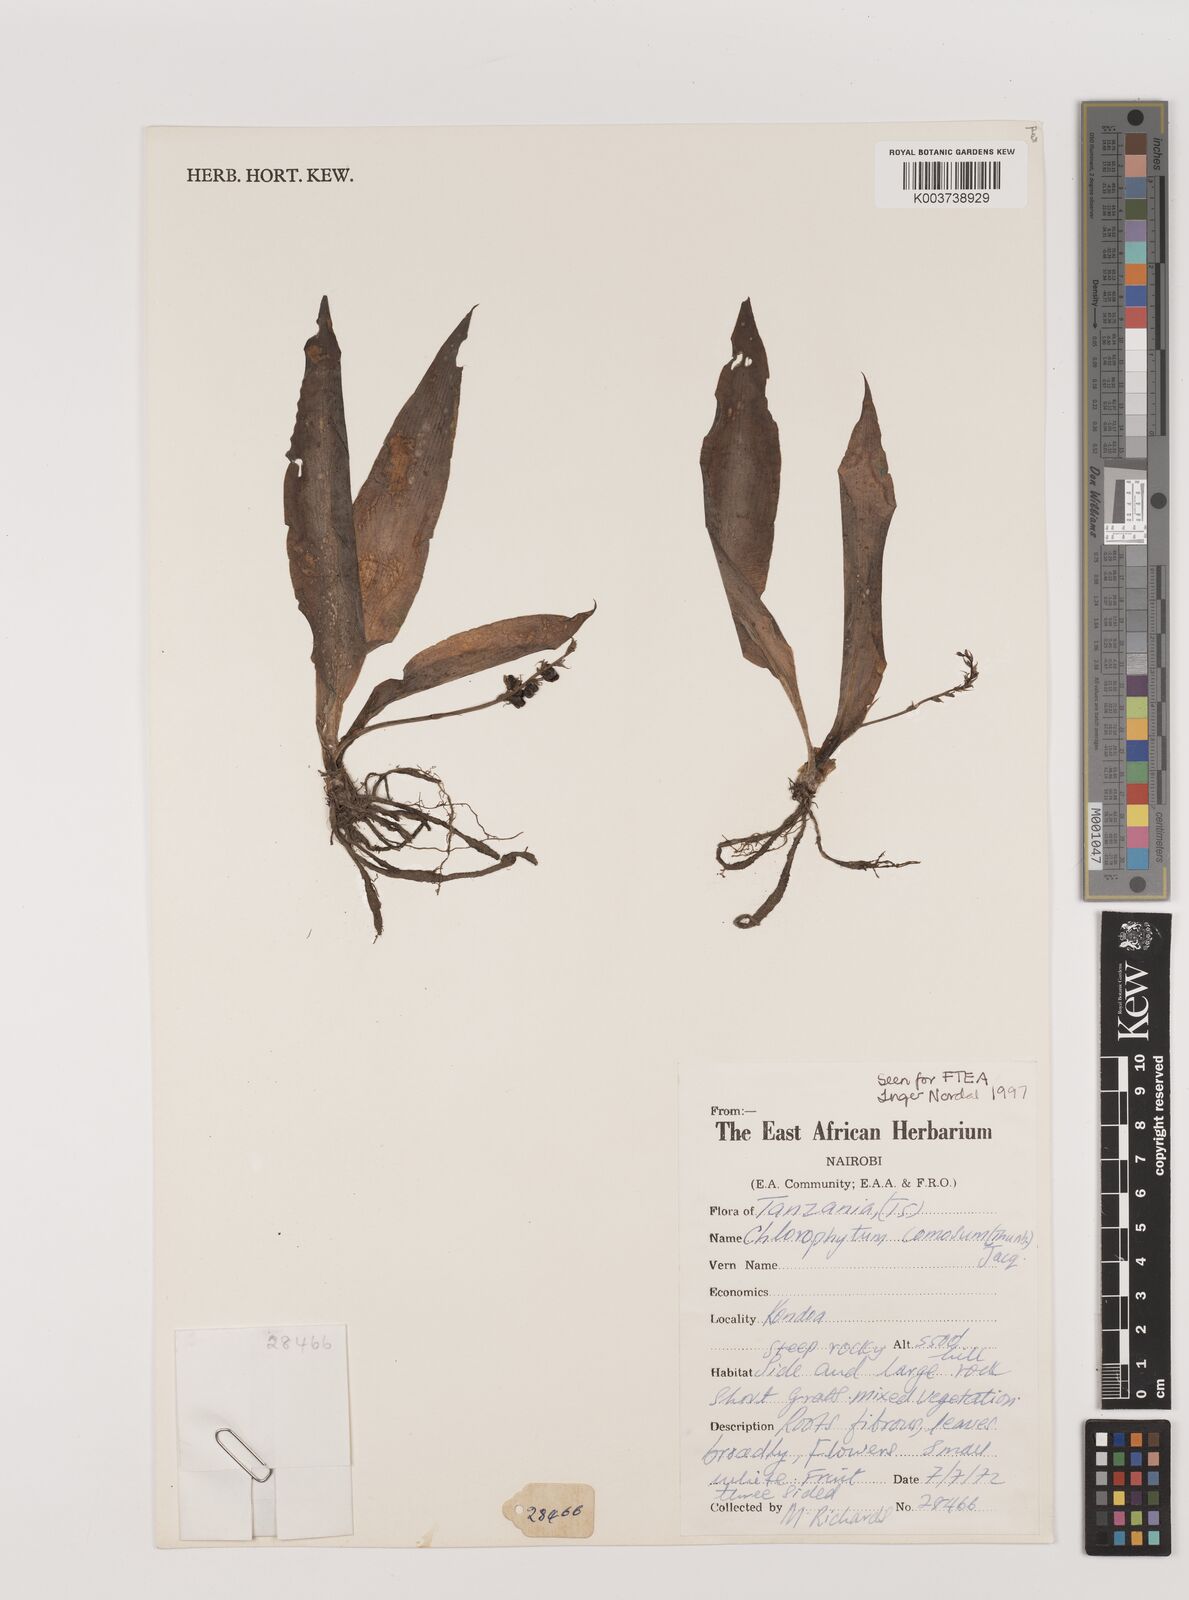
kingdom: Plantae
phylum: Tracheophyta
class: Liliopsida
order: Asparagales
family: Asparagaceae
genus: Chlorophytum
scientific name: Chlorophytum comosum
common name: Spider plant
